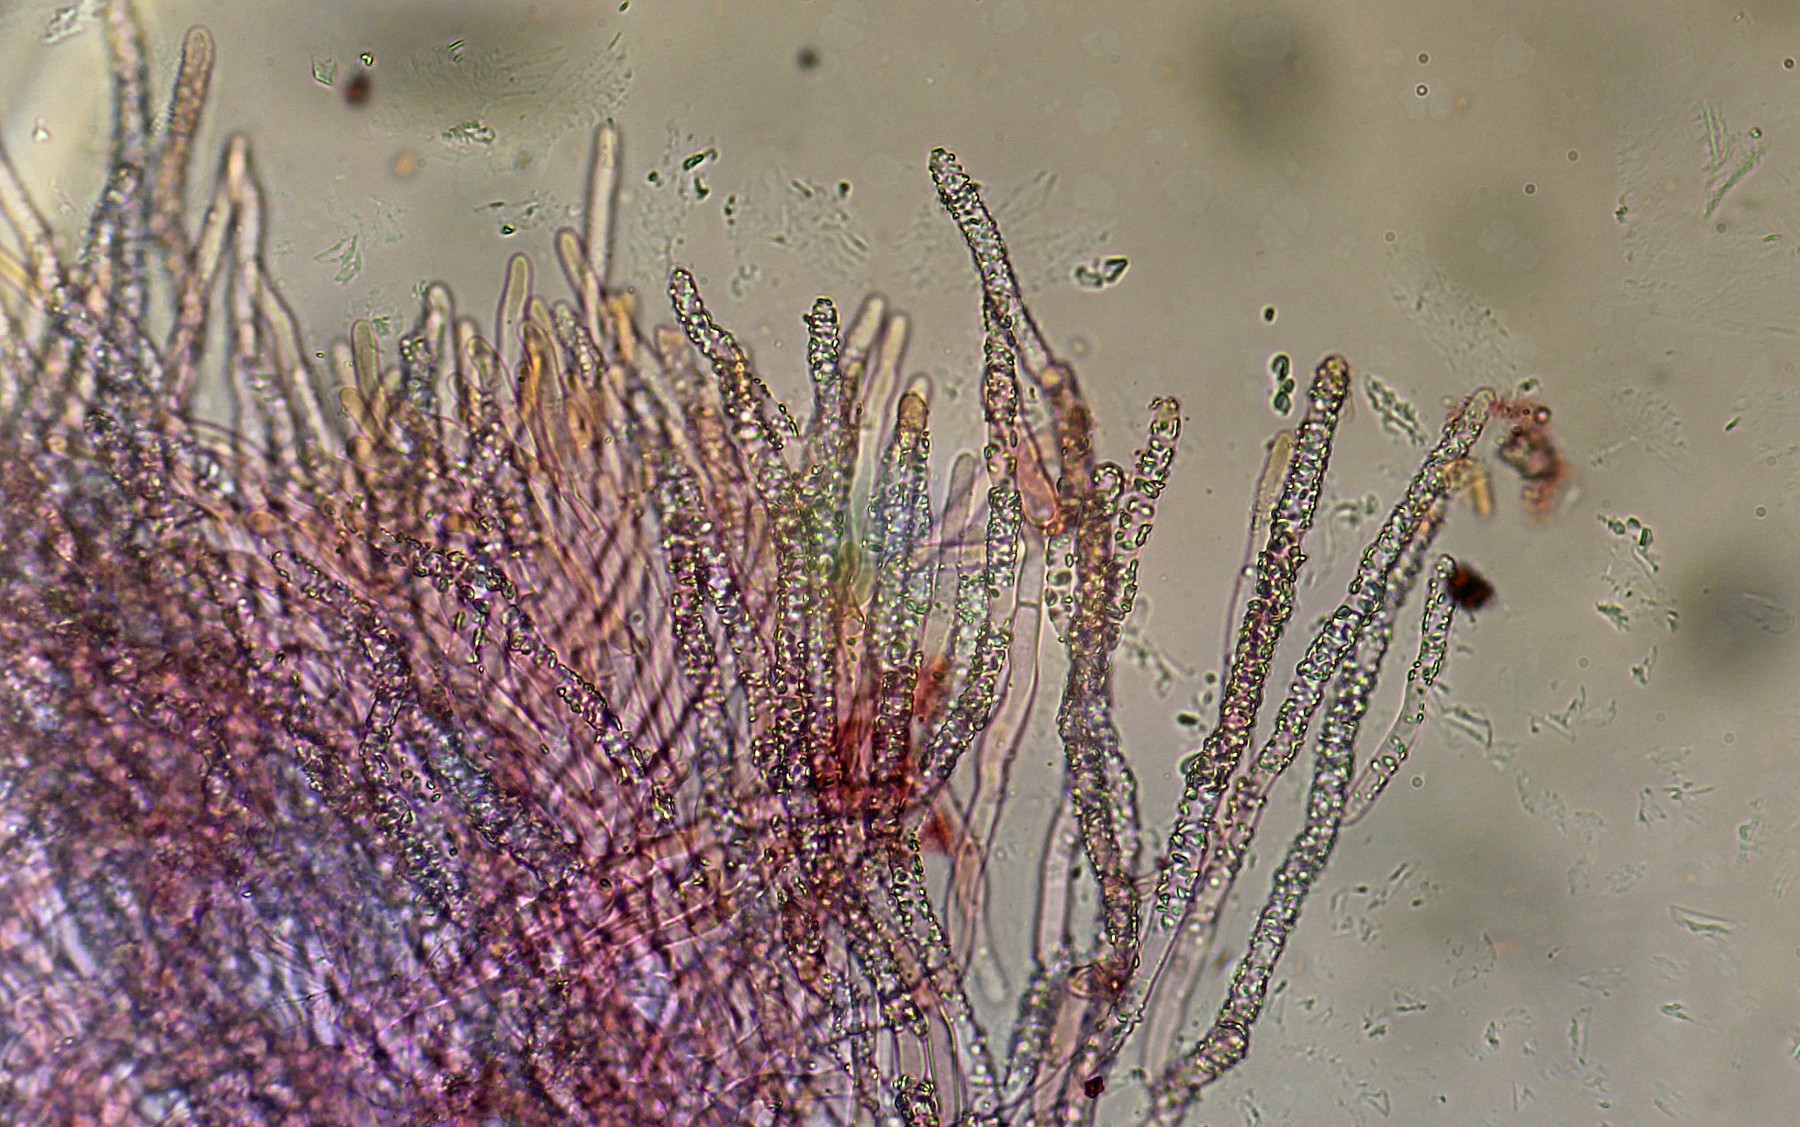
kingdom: Fungi
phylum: Basidiomycota
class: Agaricomycetes
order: Polyporales
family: Phanerochaetaceae
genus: Phanerochaete
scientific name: Phanerochaete velutina
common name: dunet randtråd
